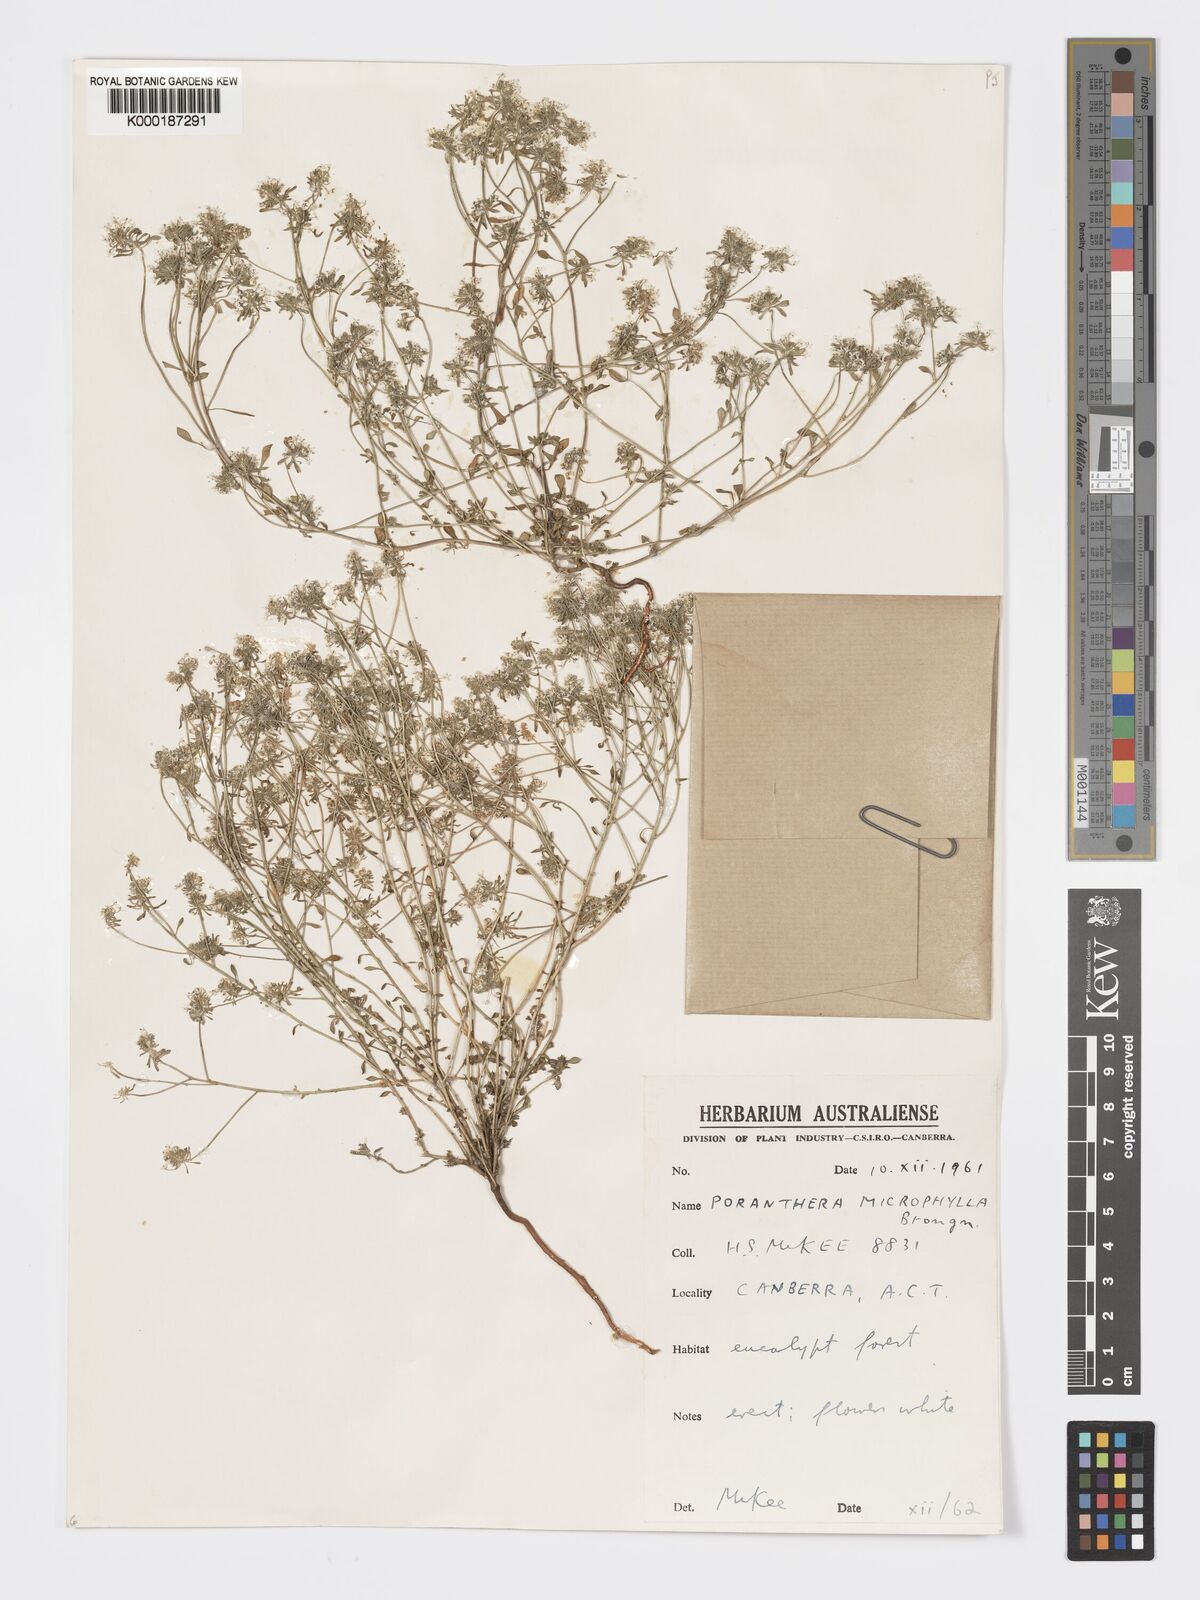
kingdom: Plantae
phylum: Tracheophyta
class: Magnoliopsida
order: Malpighiales
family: Phyllanthaceae
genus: Poranthera
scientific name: Poranthera microphylla
